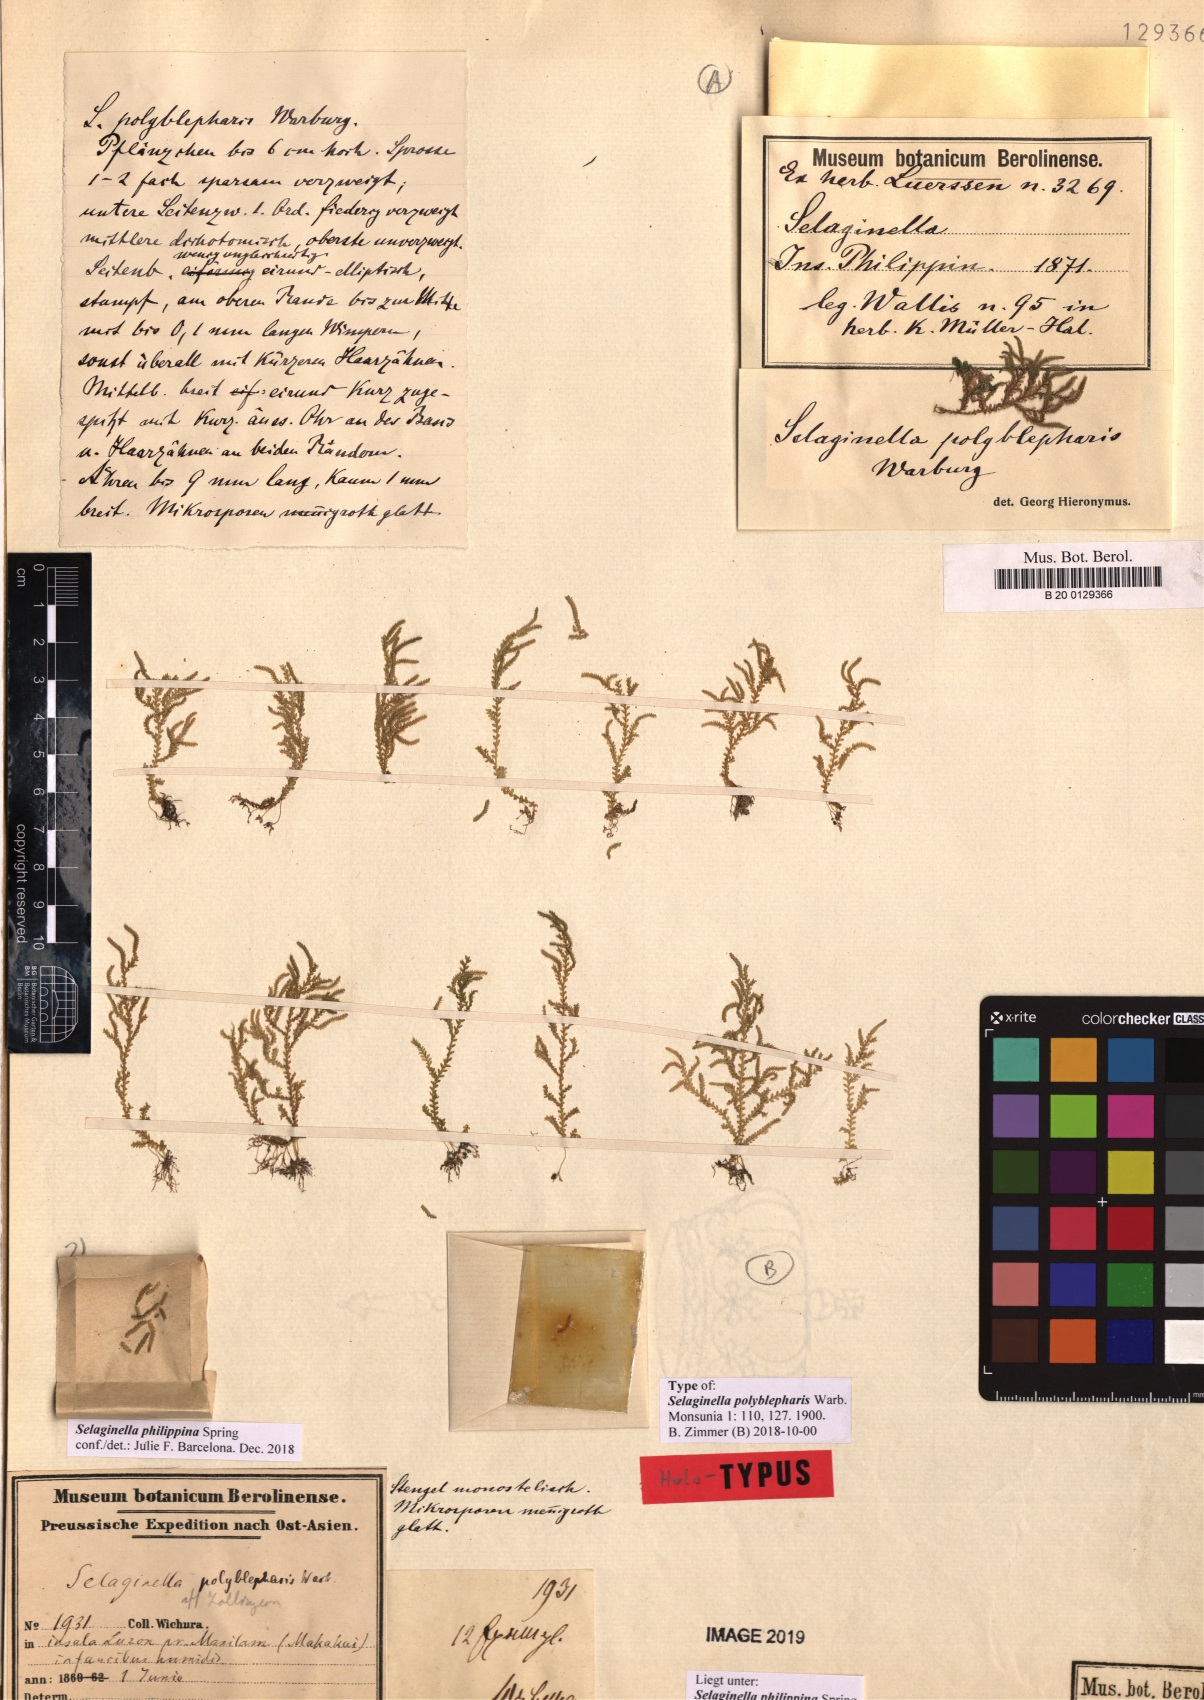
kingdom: Plantae
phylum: Tracheophyta
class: Lycopodiopsida
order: Selaginellales
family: Selaginellaceae
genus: Selaginella
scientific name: Selaginella philippsiana
